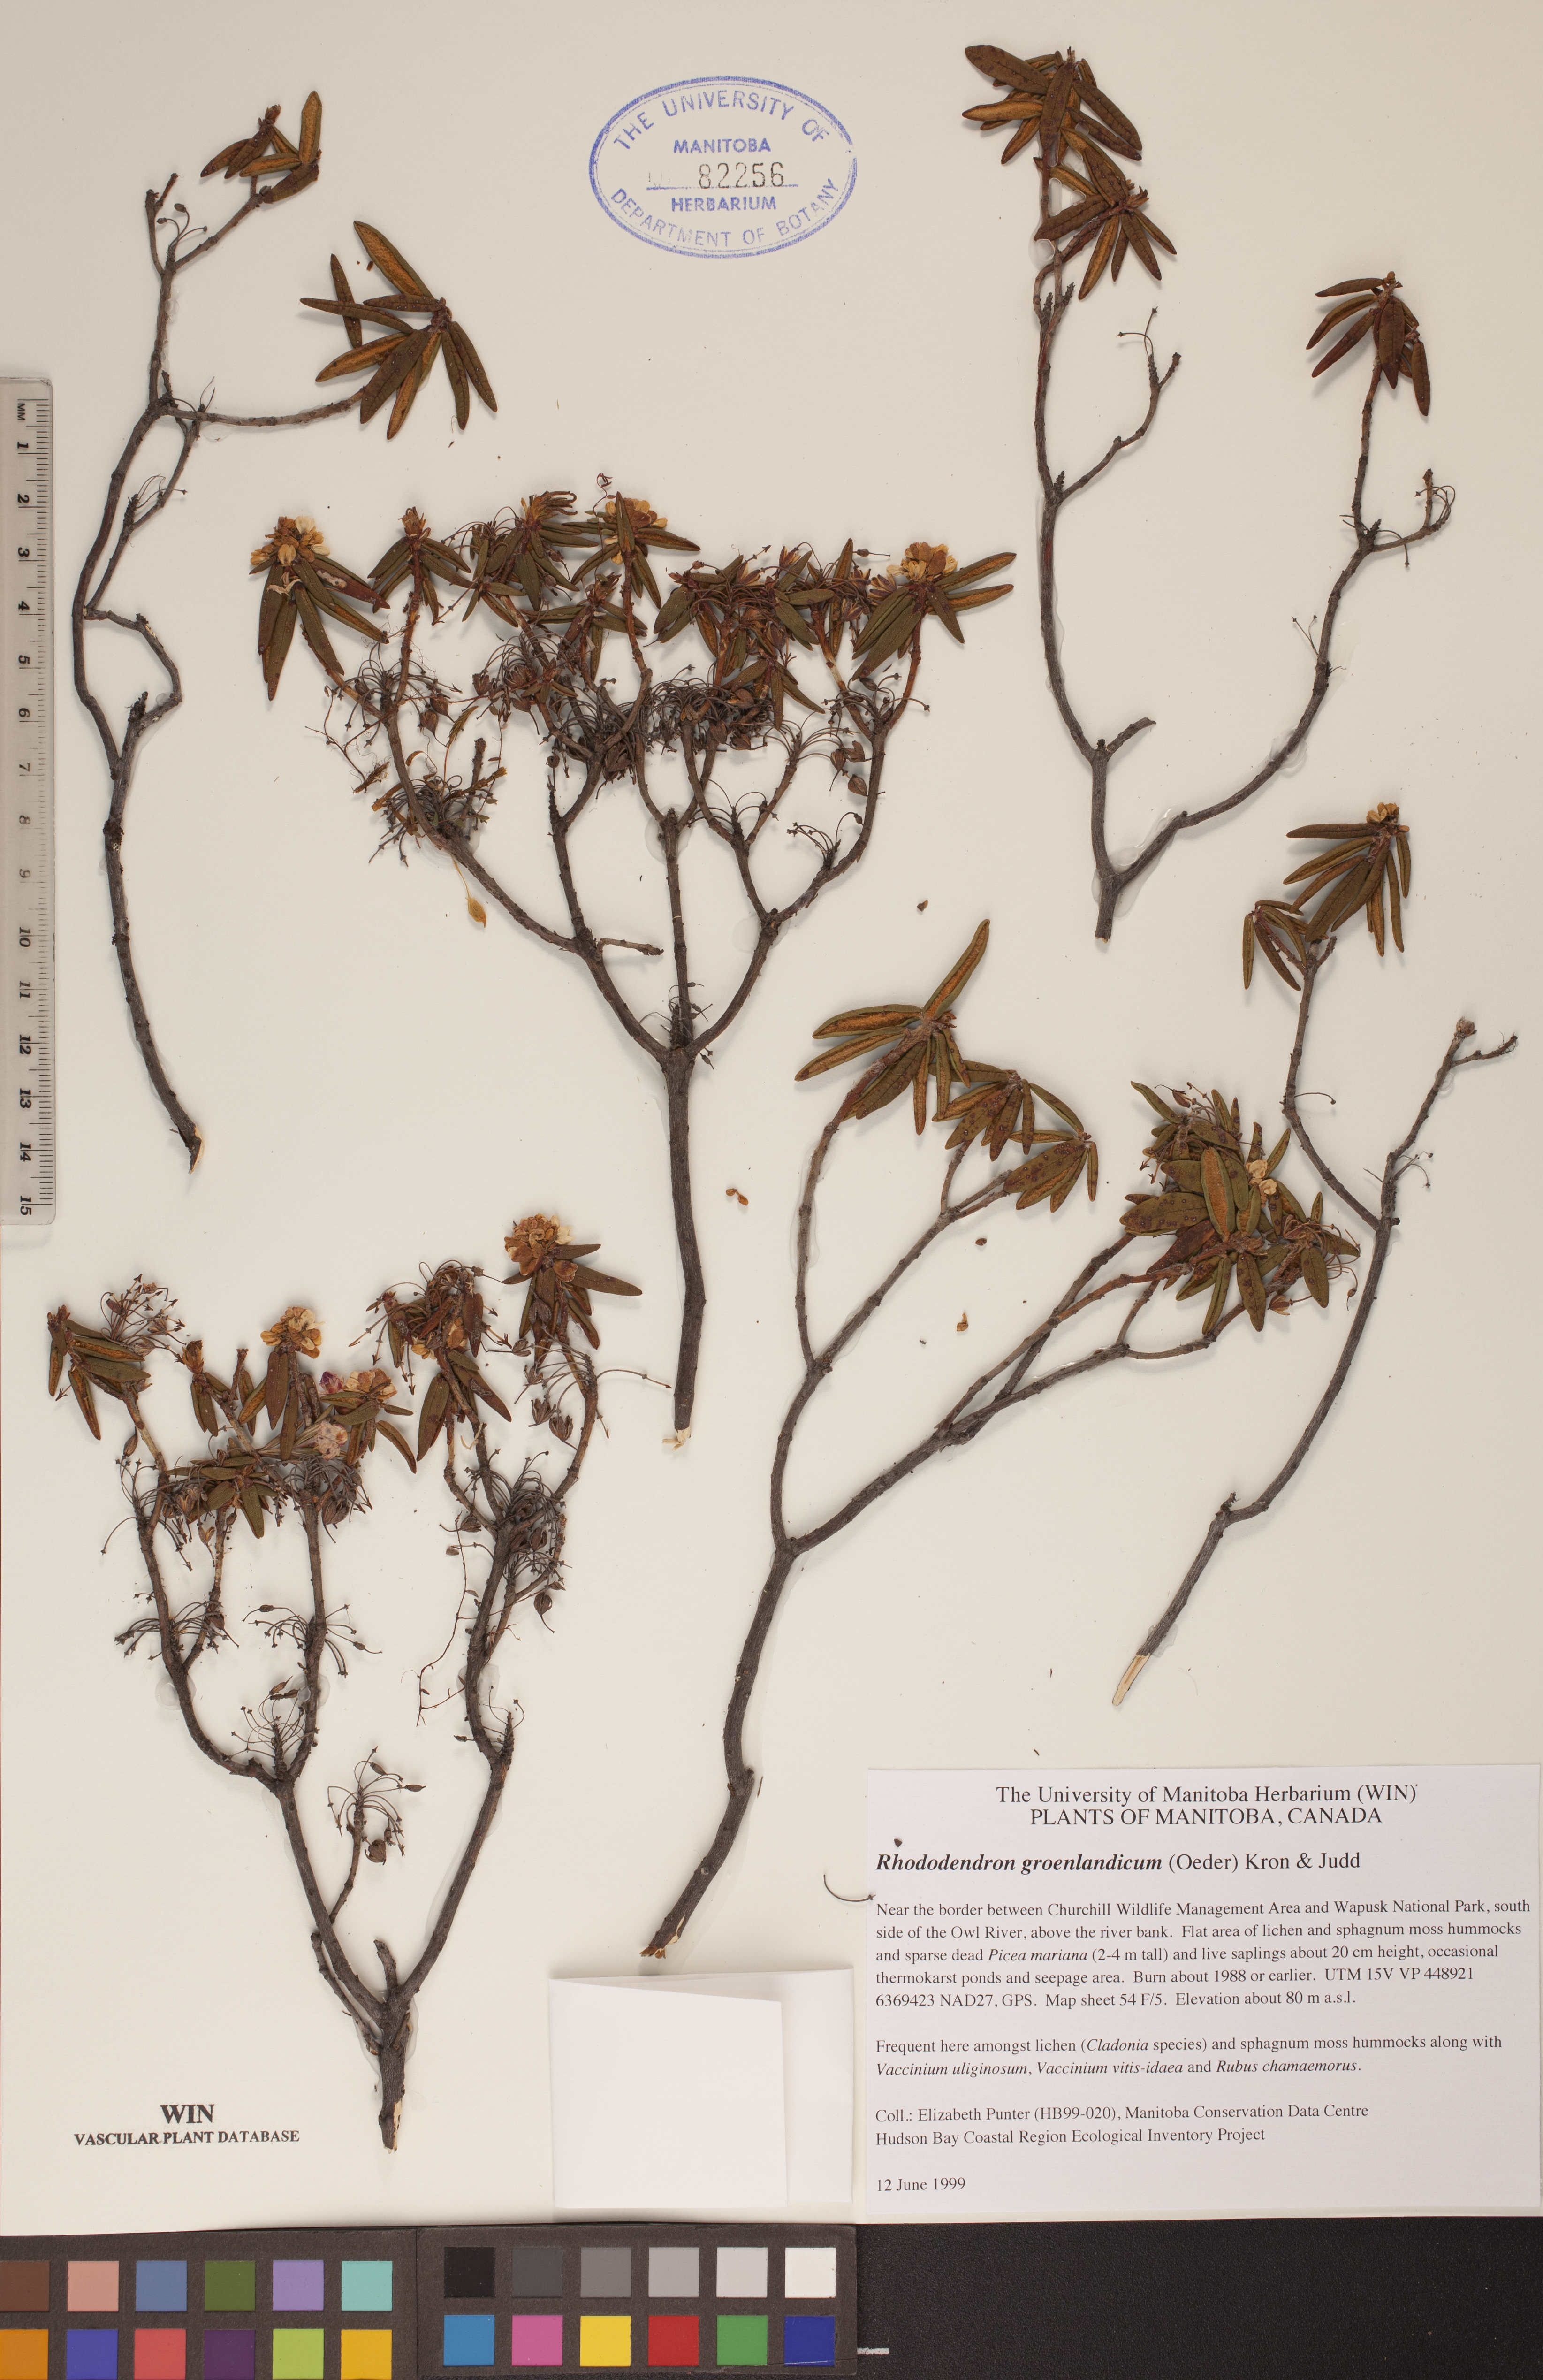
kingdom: Plantae
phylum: Tracheophyta
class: Magnoliopsida
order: Ericales
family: Ericaceae
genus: Rhododendron
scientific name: Rhododendron groenlandicum
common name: Bog labrador tea
